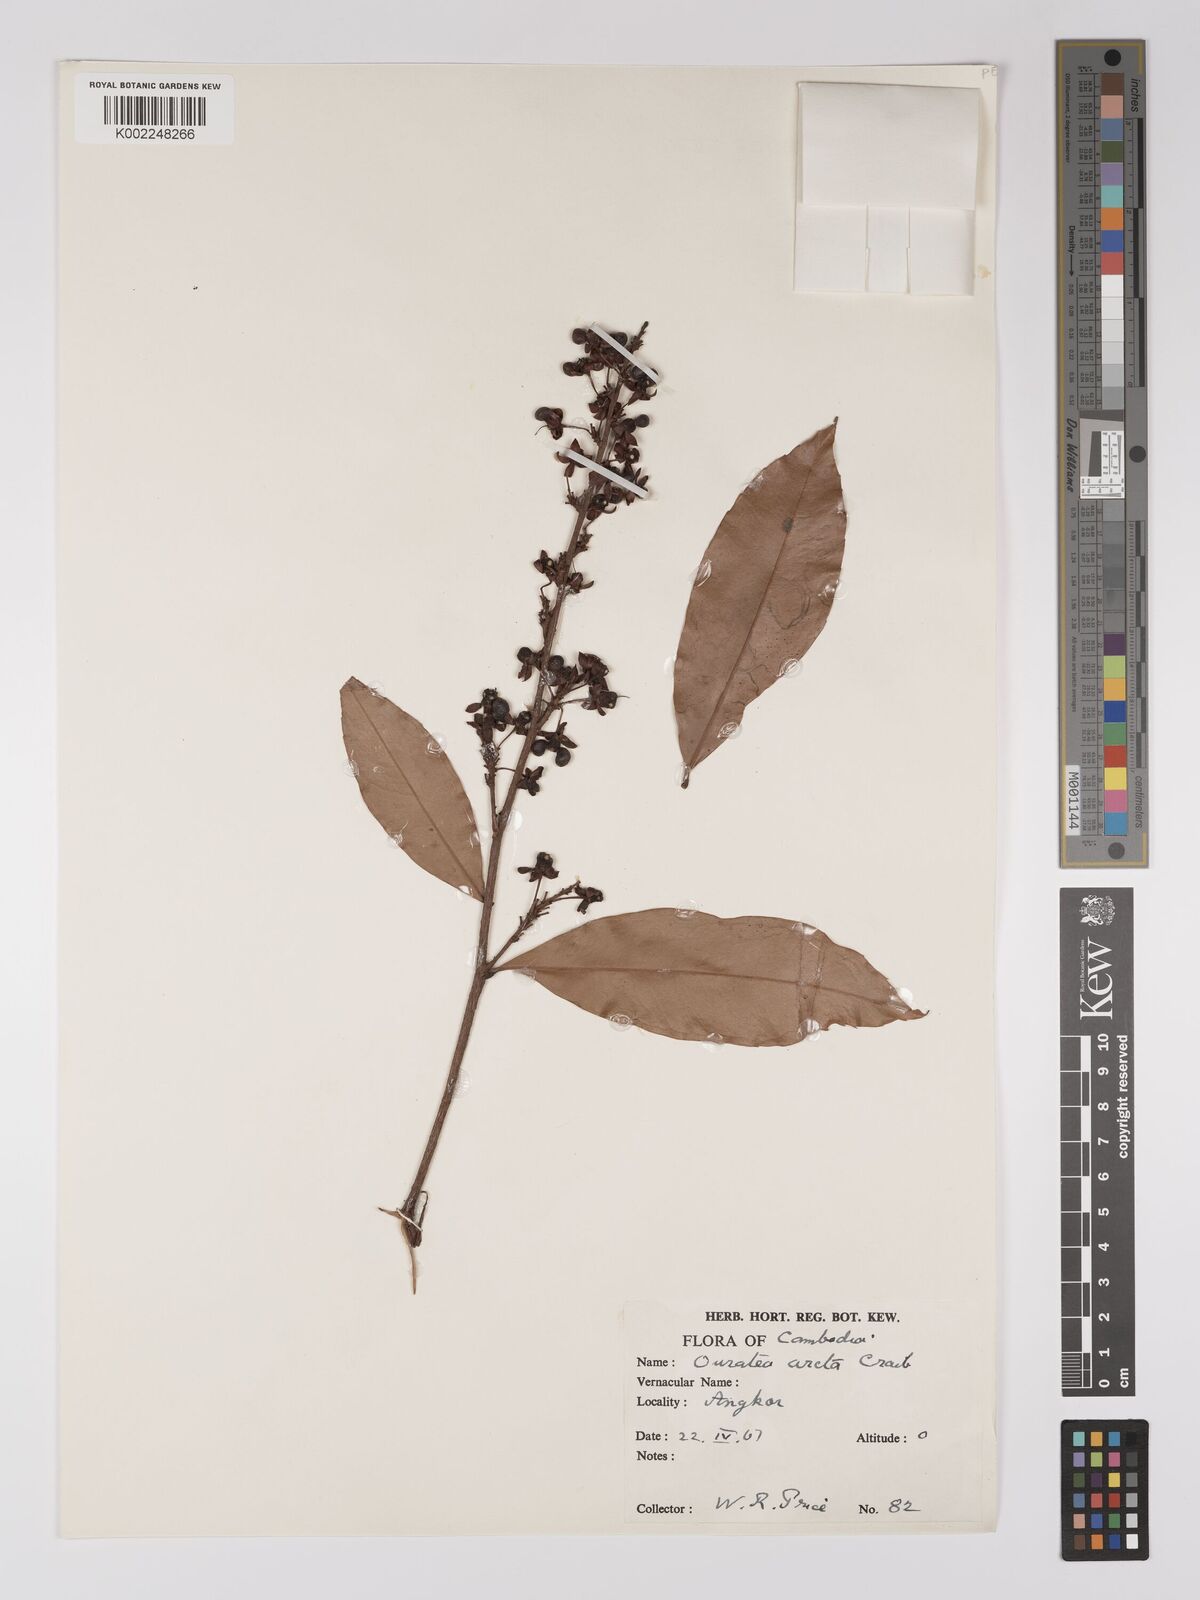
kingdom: Plantae
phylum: Tracheophyta
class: Magnoliopsida
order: Malpighiales
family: Ochnaceae
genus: Gomphia
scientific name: Gomphia serrata
